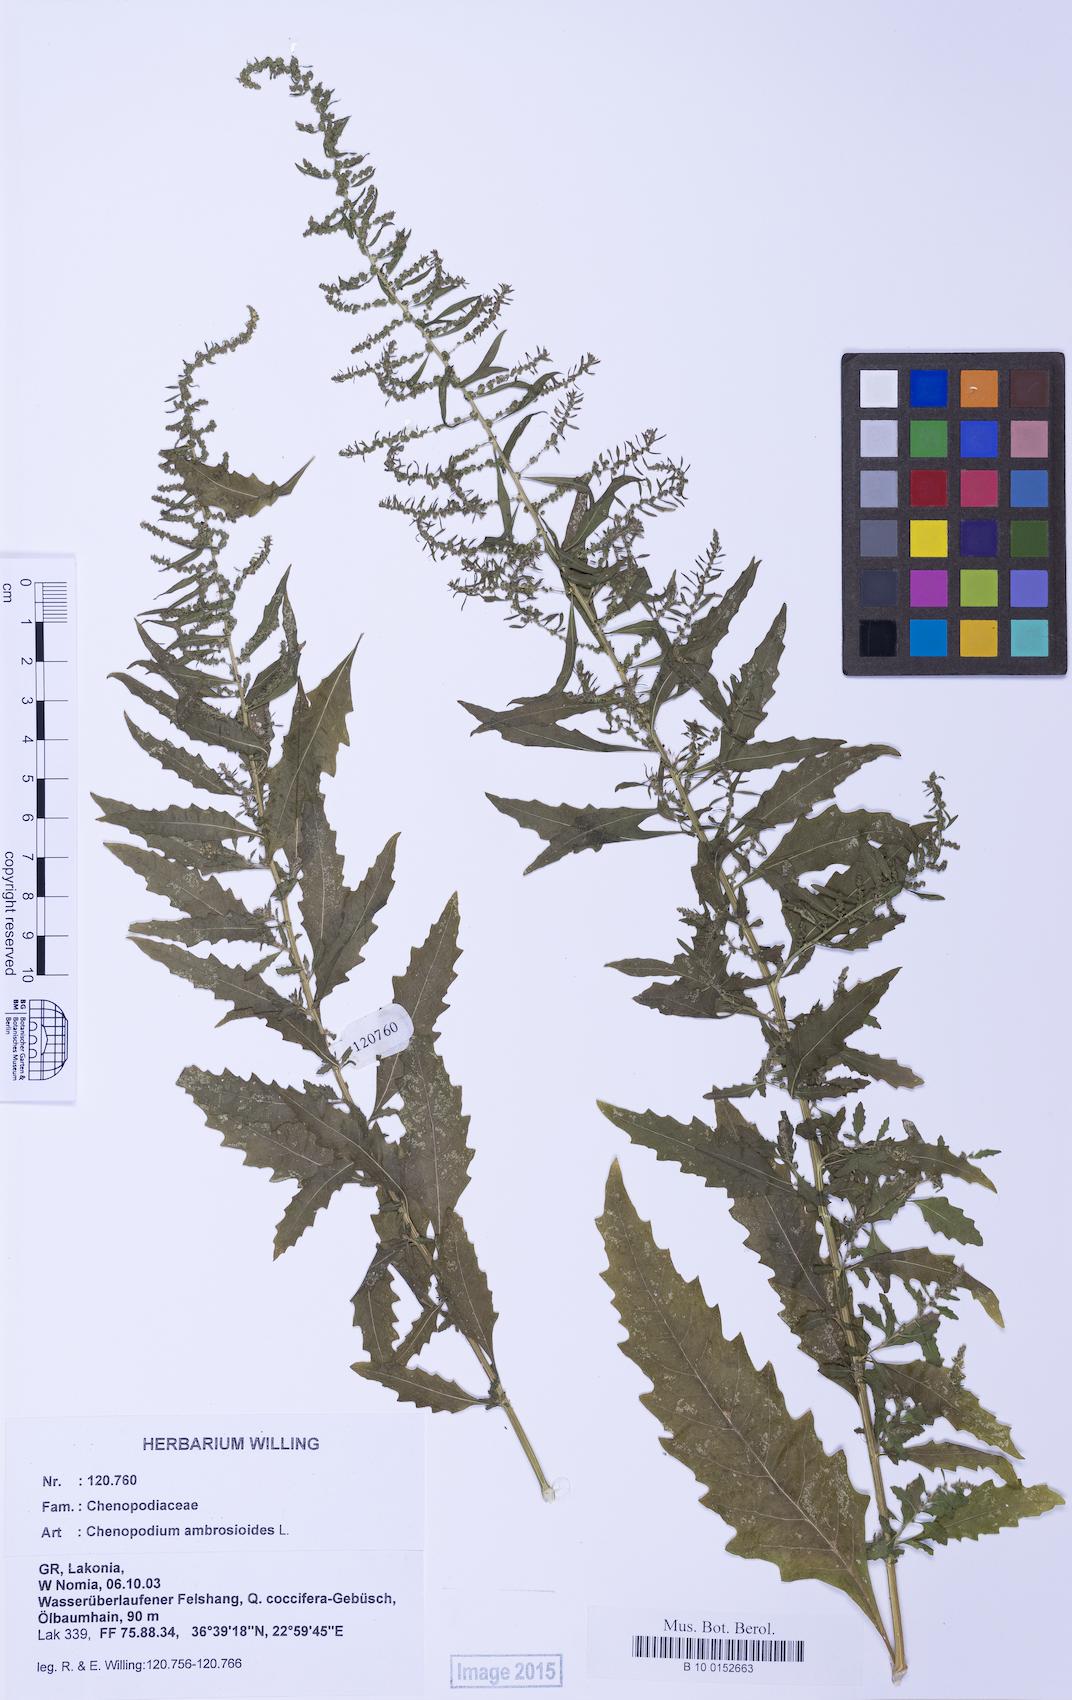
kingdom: Plantae
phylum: Tracheophyta
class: Magnoliopsida
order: Caryophyllales
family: Amaranthaceae
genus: Dysphania
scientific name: Dysphania ambrosioides
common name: Wormseed
